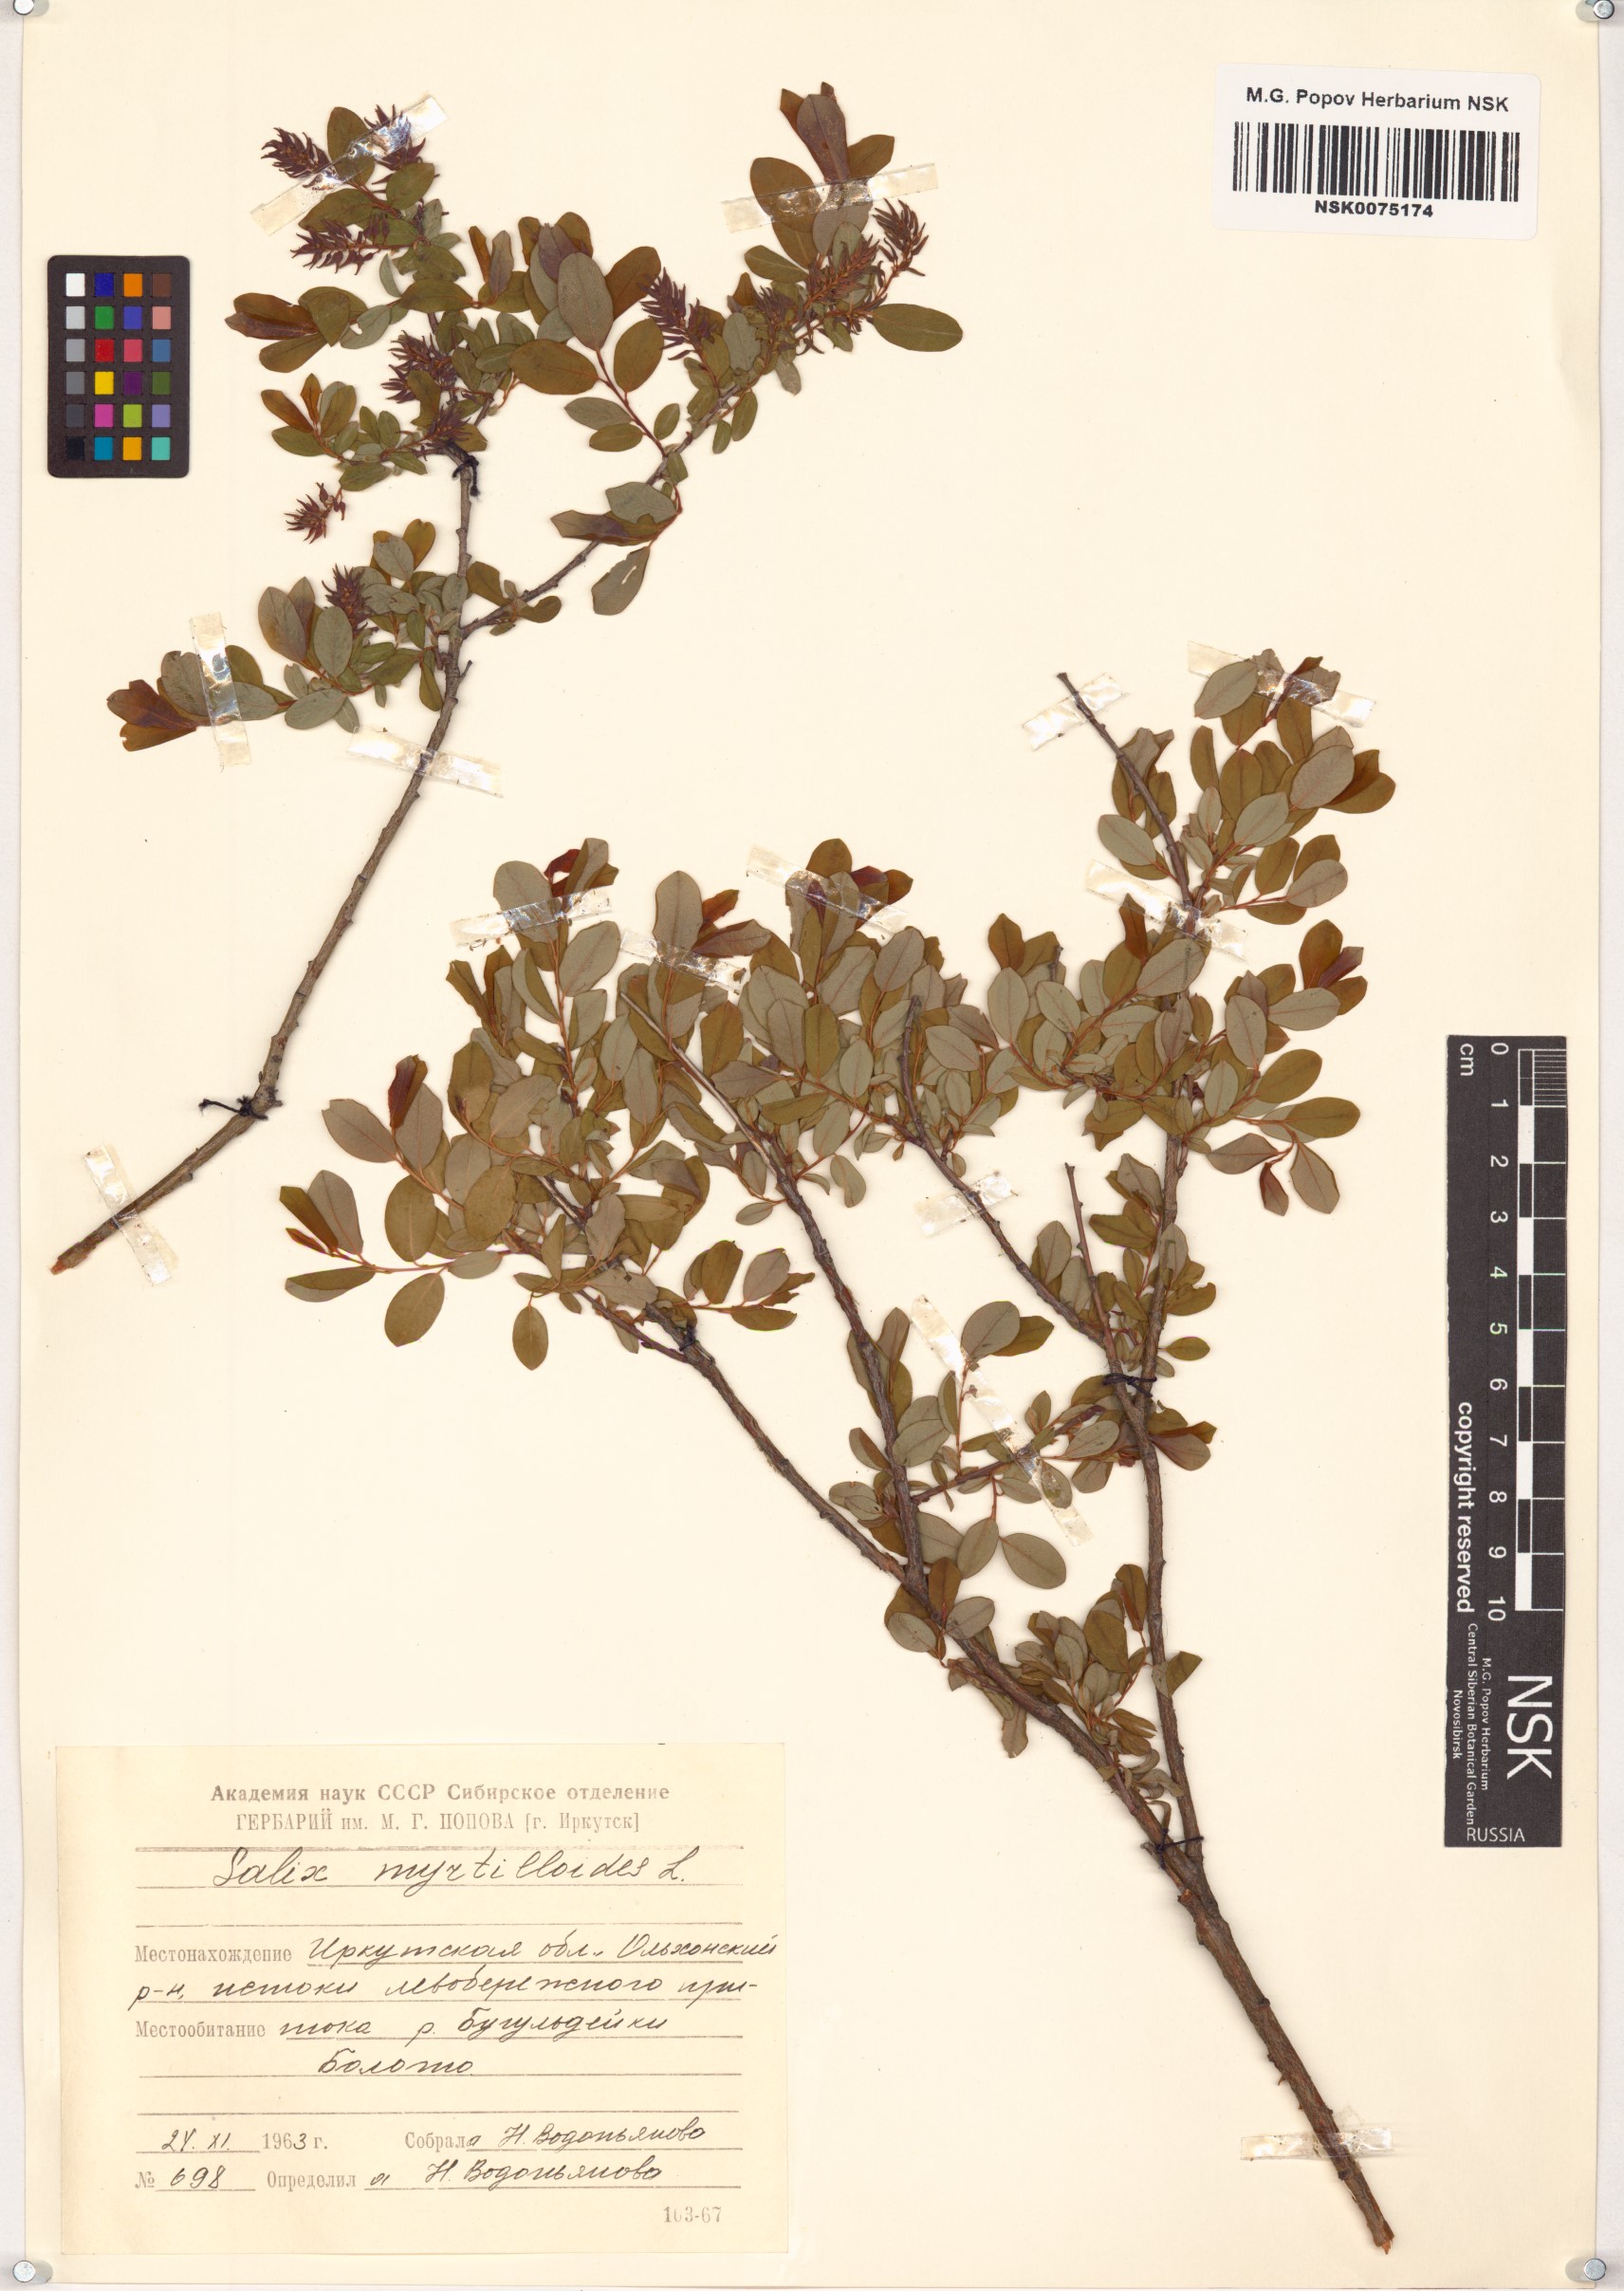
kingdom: Plantae
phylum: Tracheophyta
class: Magnoliopsida
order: Malpighiales
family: Salicaceae
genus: Salix
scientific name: Salix myrtilloides
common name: Myrtle-leaved willow
